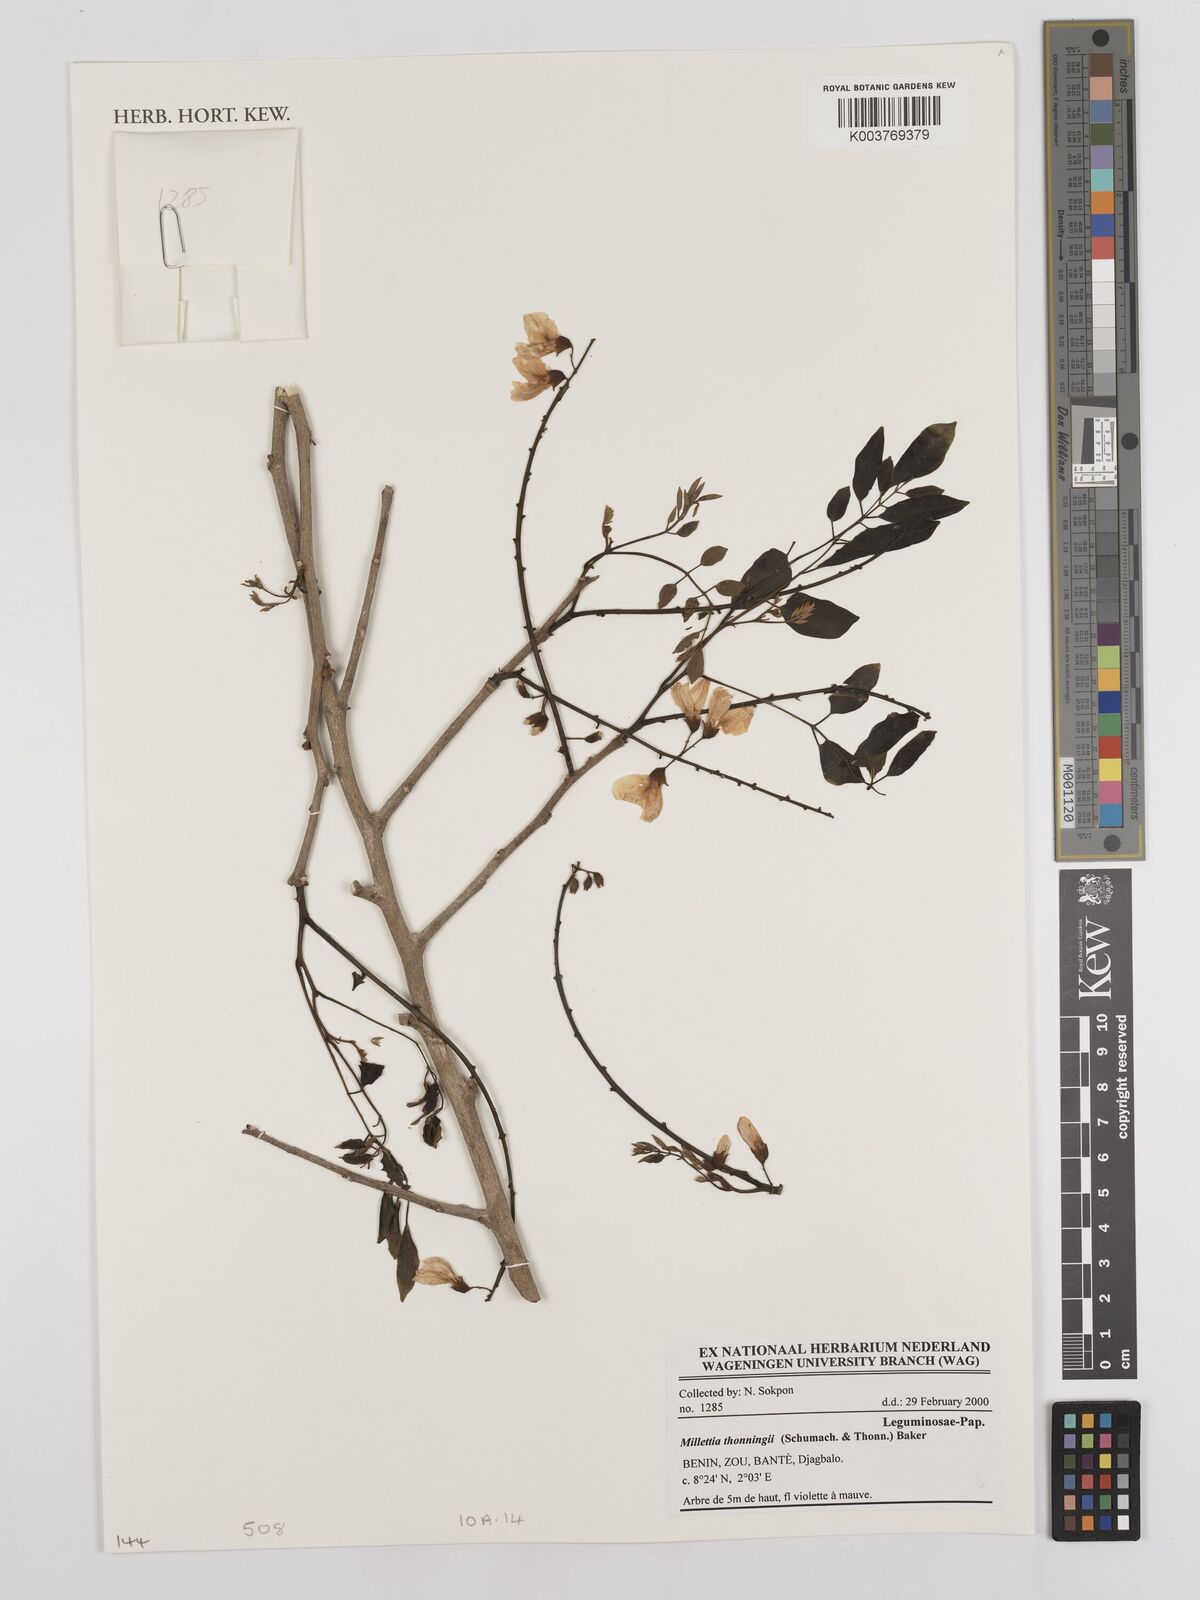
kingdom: Plantae
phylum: Tracheophyta
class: Magnoliopsida
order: Fabales
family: Fabaceae
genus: Millettia
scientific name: Millettia thonningii
